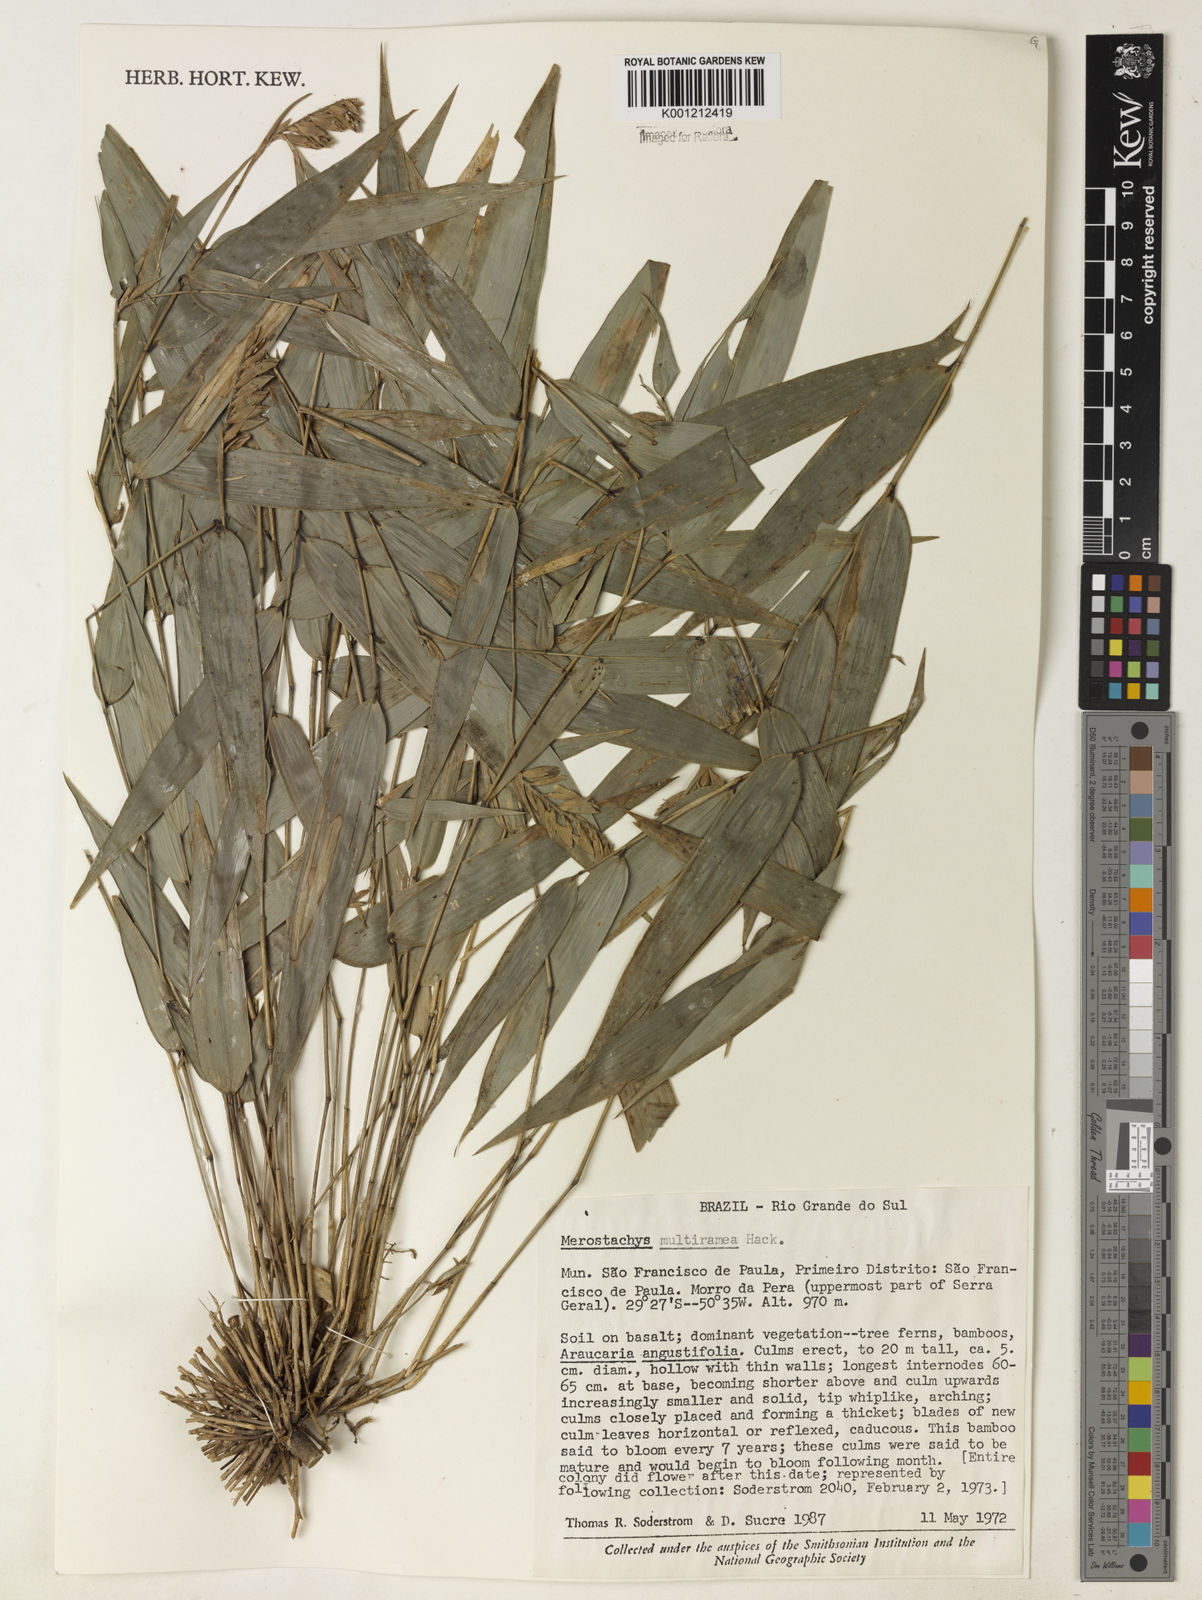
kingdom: Plantae
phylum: Tracheophyta
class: Liliopsida
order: Poales
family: Poaceae
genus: Merostachys
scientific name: Merostachys multiramea
